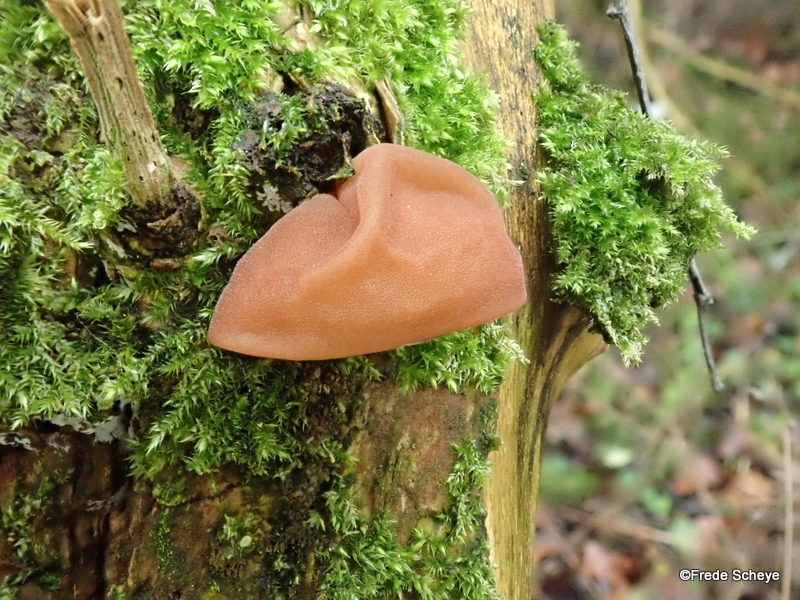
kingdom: Fungi
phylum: Basidiomycota
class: Agaricomycetes
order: Auriculariales
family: Auriculariaceae
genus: Auricularia
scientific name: Auricularia auricula-judae
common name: almindelig judasøre
